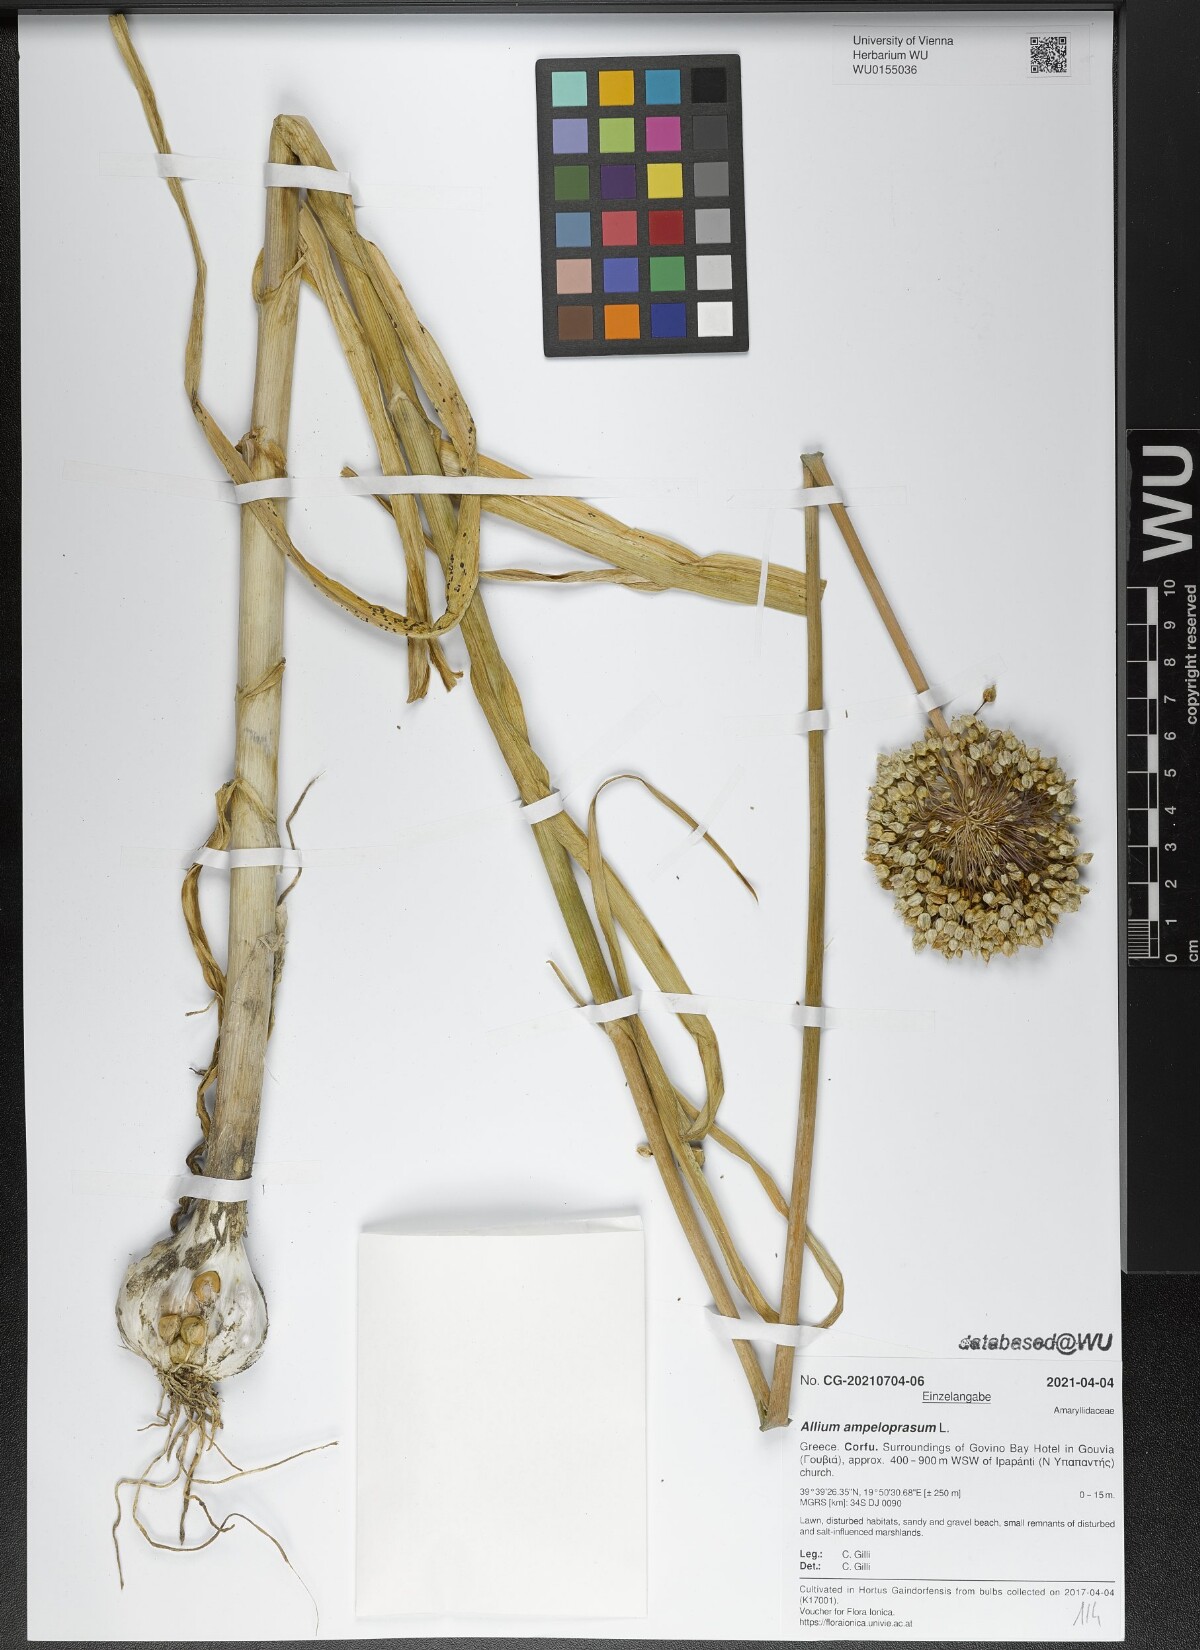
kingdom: Plantae
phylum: Tracheophyta
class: Liliopsida
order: Asparagales
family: Amaryllidaceae
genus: Allium
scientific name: Allium ampeloprasum
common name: Wild leek
